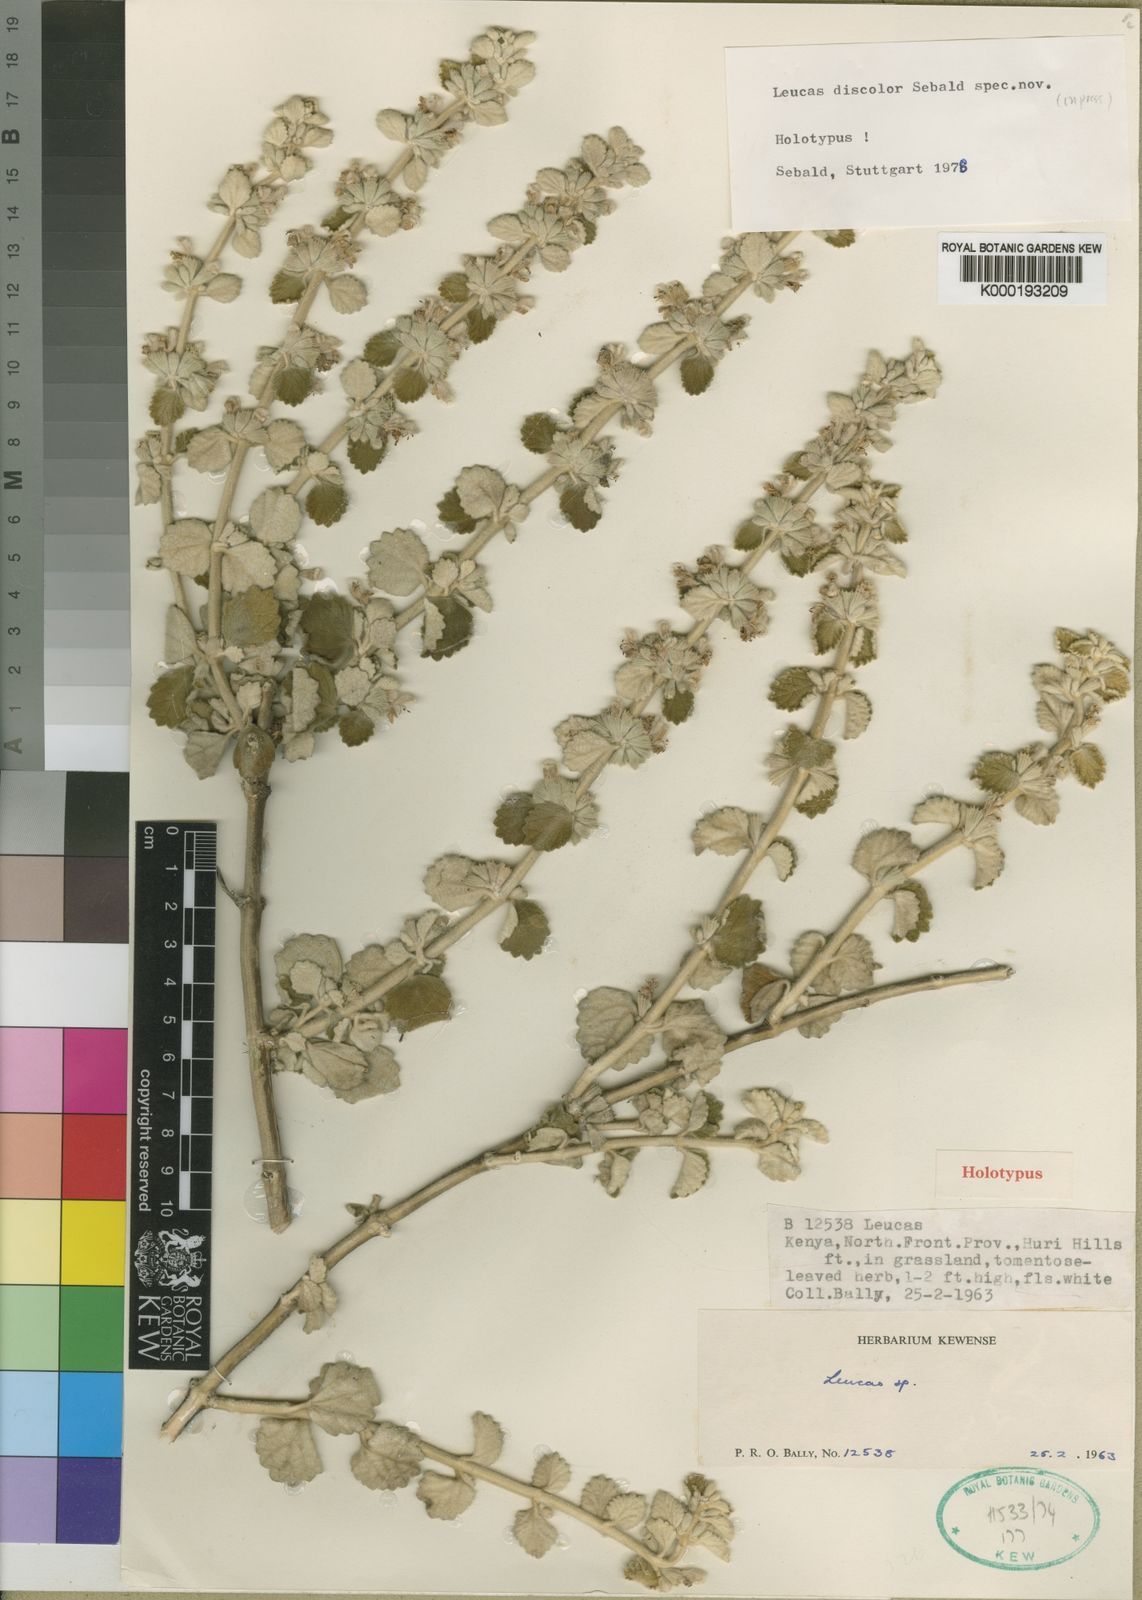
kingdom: Plantae
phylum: Tracheophyta
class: Magnoliopsida
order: Lamiales
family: Lamiaceae
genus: Leucas
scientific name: Leucas discolor
